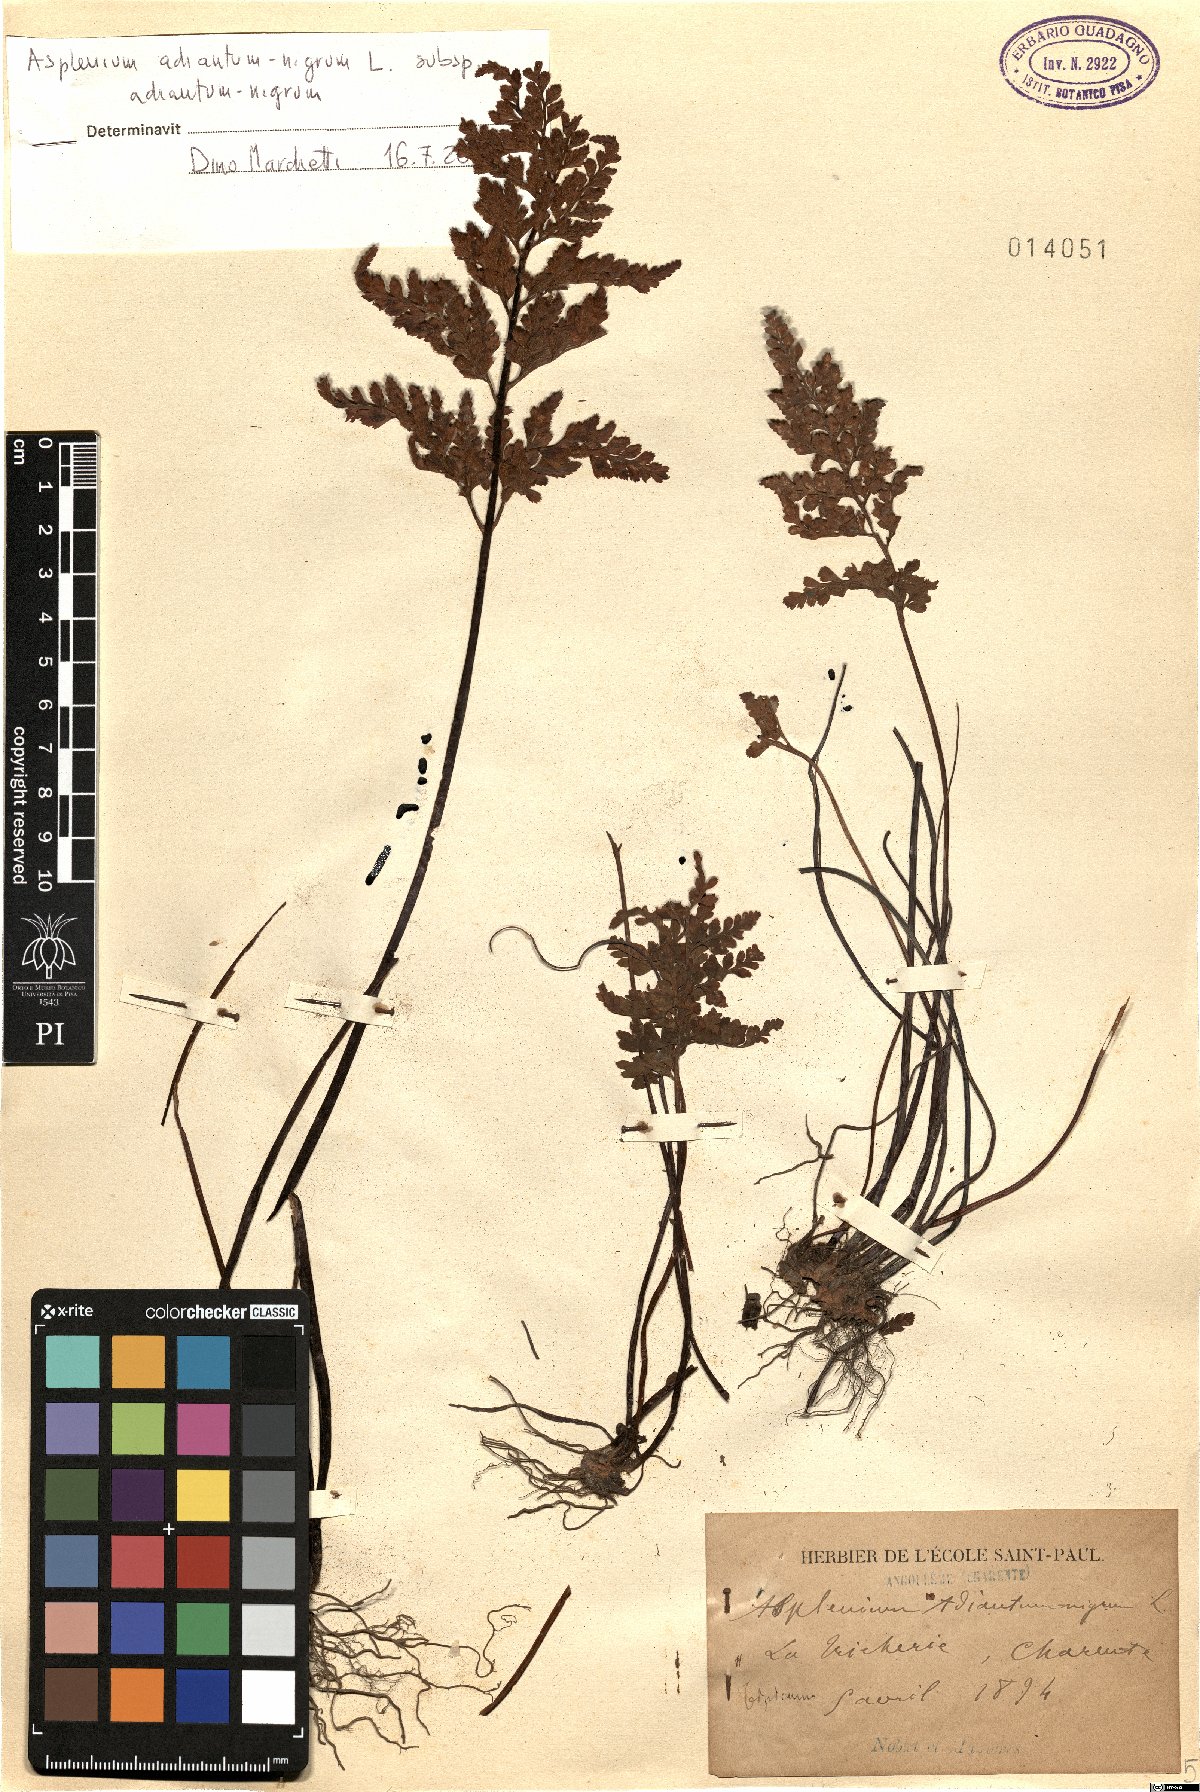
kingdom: Plantae
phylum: Tracheophyta
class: Polypodiopsida
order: Polypodiales
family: Aspleniaceae
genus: Asplenium
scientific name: Asplenium adiantum-nigrum
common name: Black spleenwort
